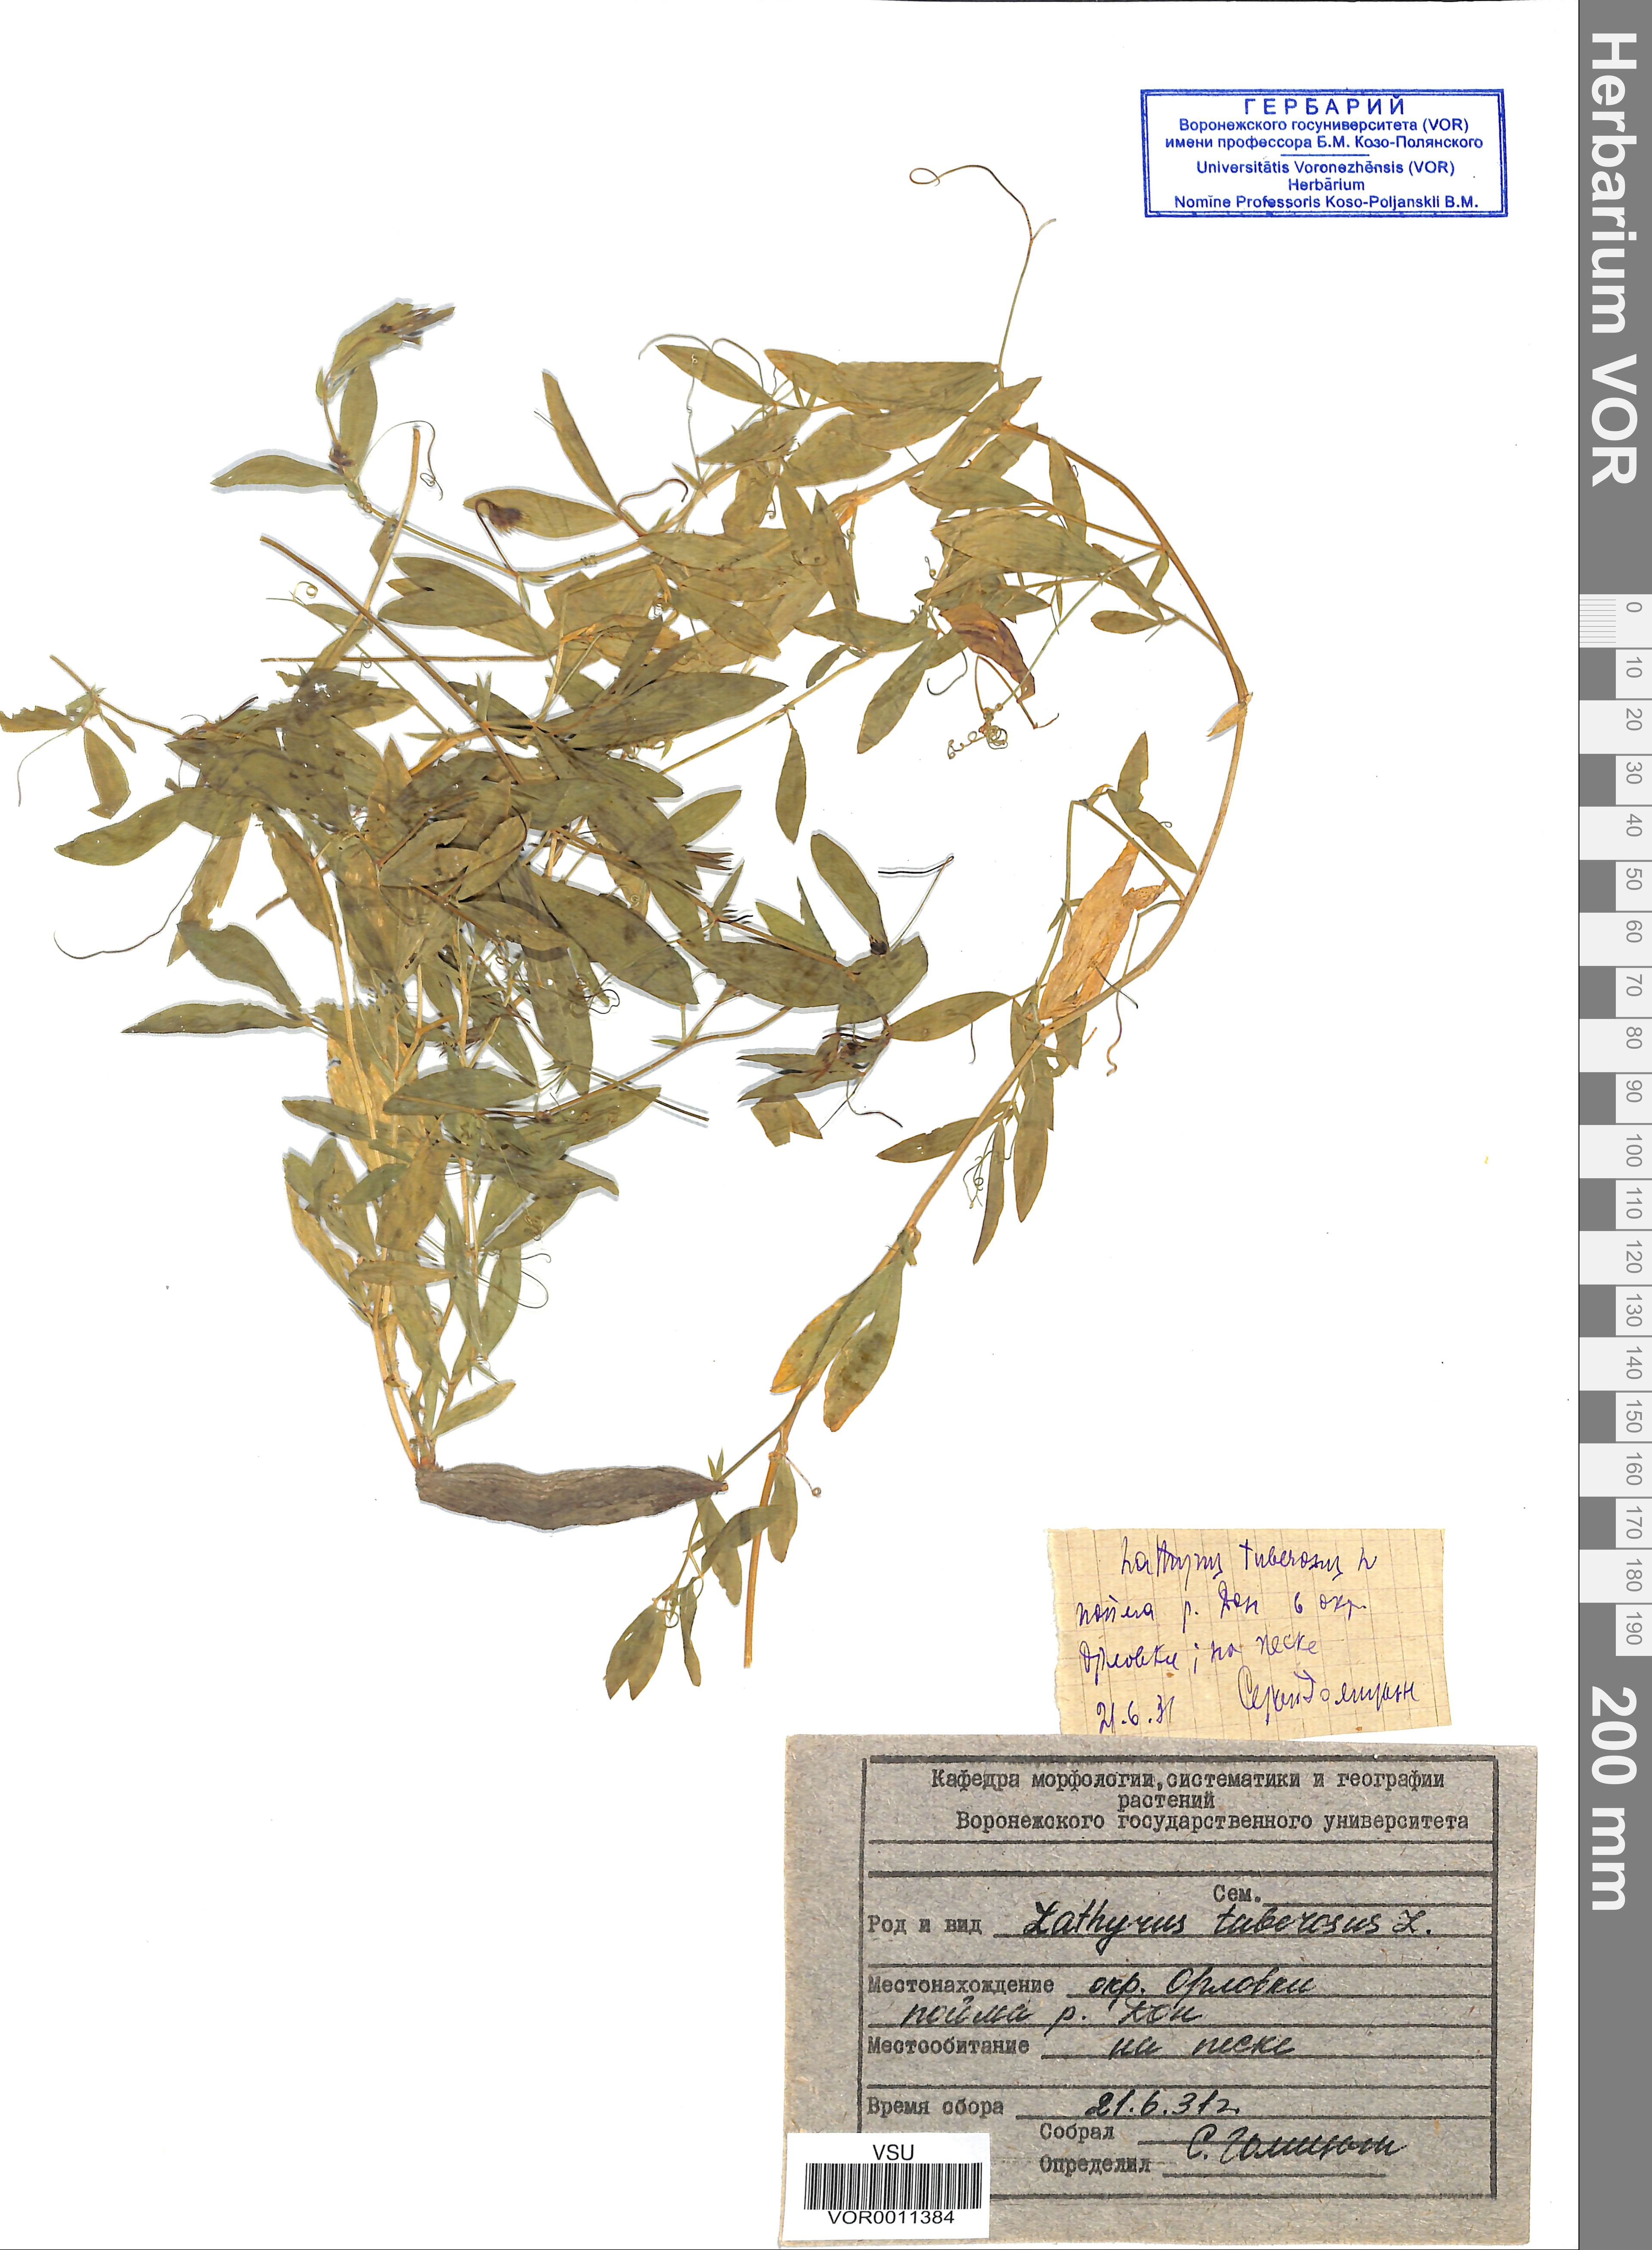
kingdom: Plantae
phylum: Tracheophyta
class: Magnoliopsida
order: Fabales
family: Fabaceae
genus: Lathyrus
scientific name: Lathyrus tuberosus
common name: Tuberous pea
